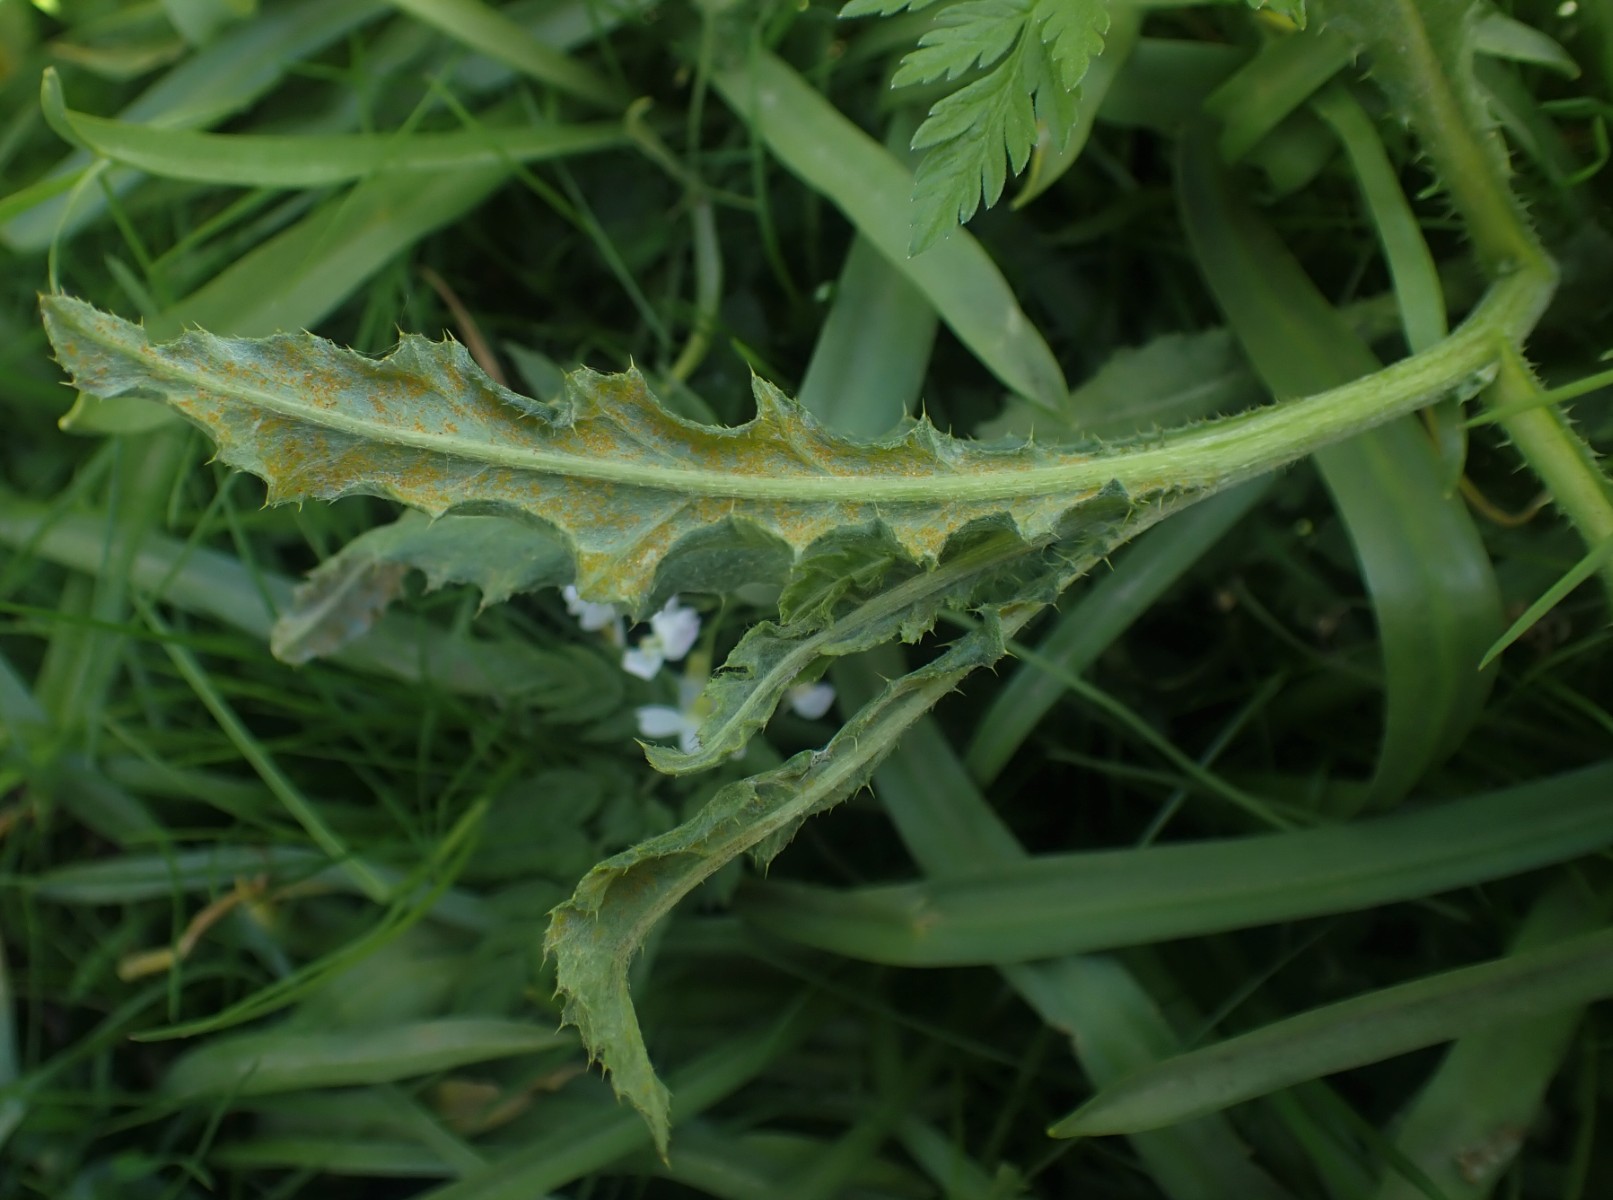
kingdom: Fungi
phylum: Basidiomycota
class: Pucciniomycetes
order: Pucciniales
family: Pucciniaceae
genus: Puccinia
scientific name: Puccinia suaveolens
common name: tidsel-tvecellerust
